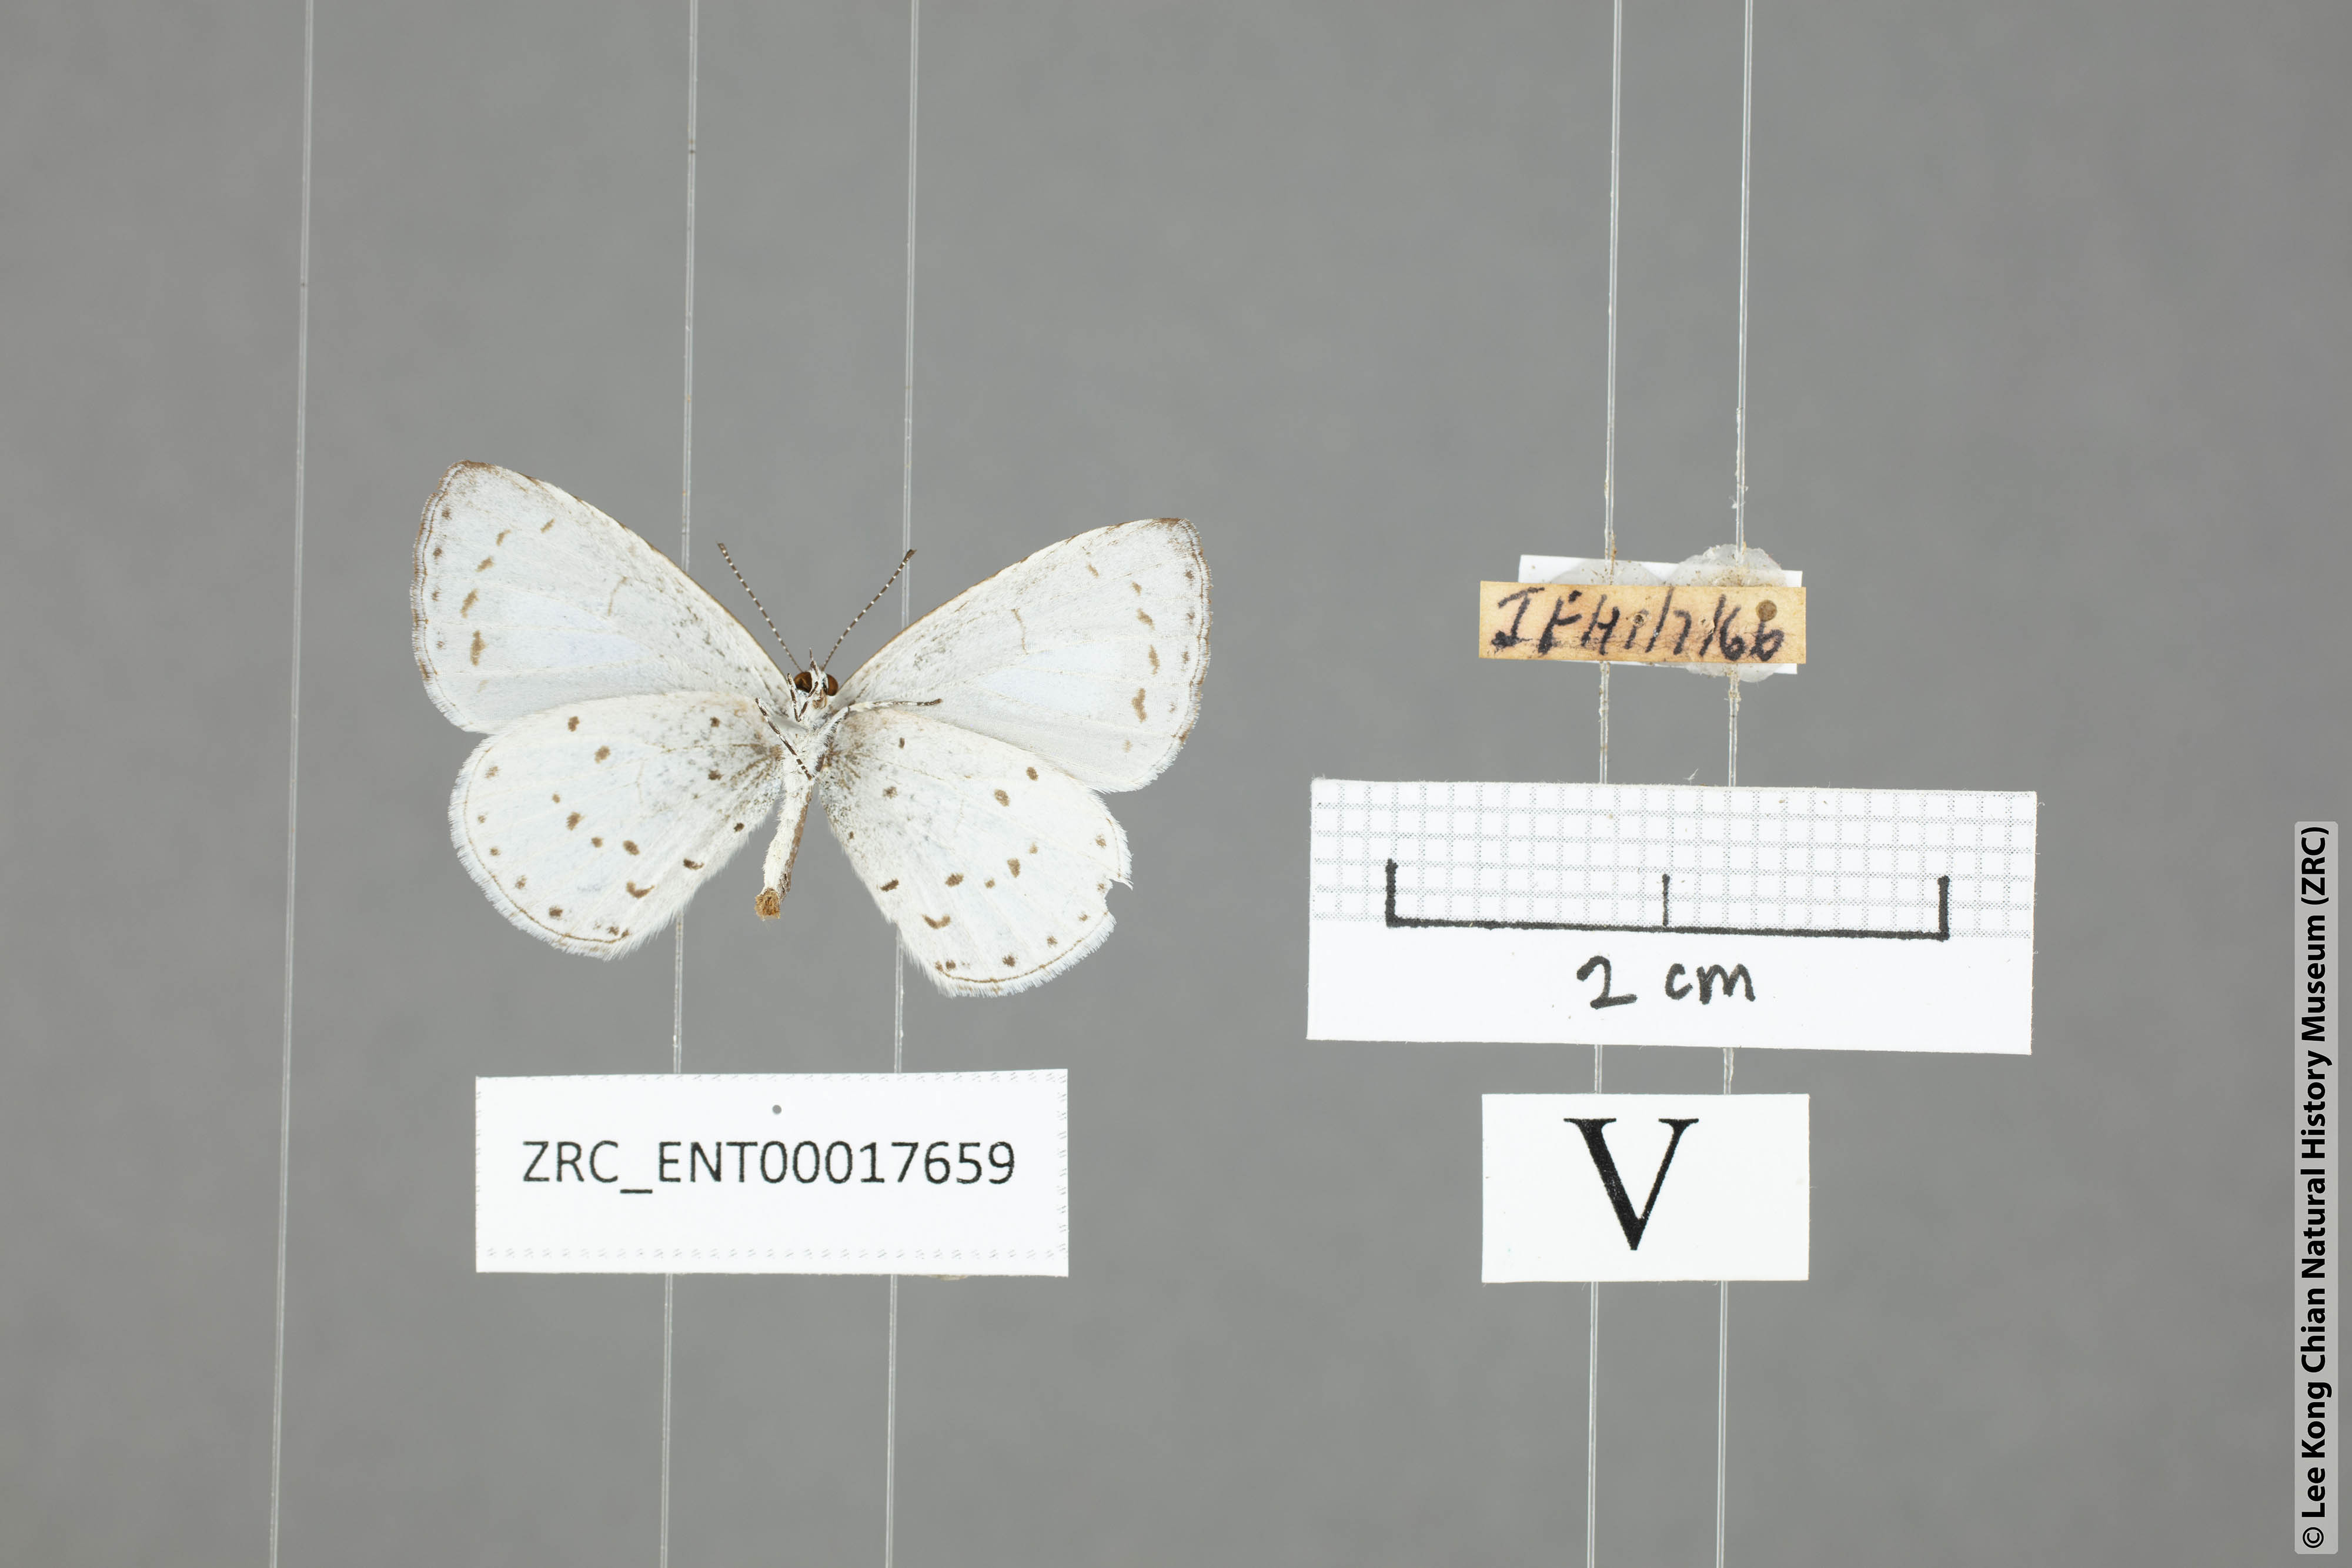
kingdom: Animalia
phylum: Arthropoda
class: Insecta
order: Lepidoptera
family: Lycaenidae
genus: Udara
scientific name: Udara albocaerulea
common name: Albocerulean
